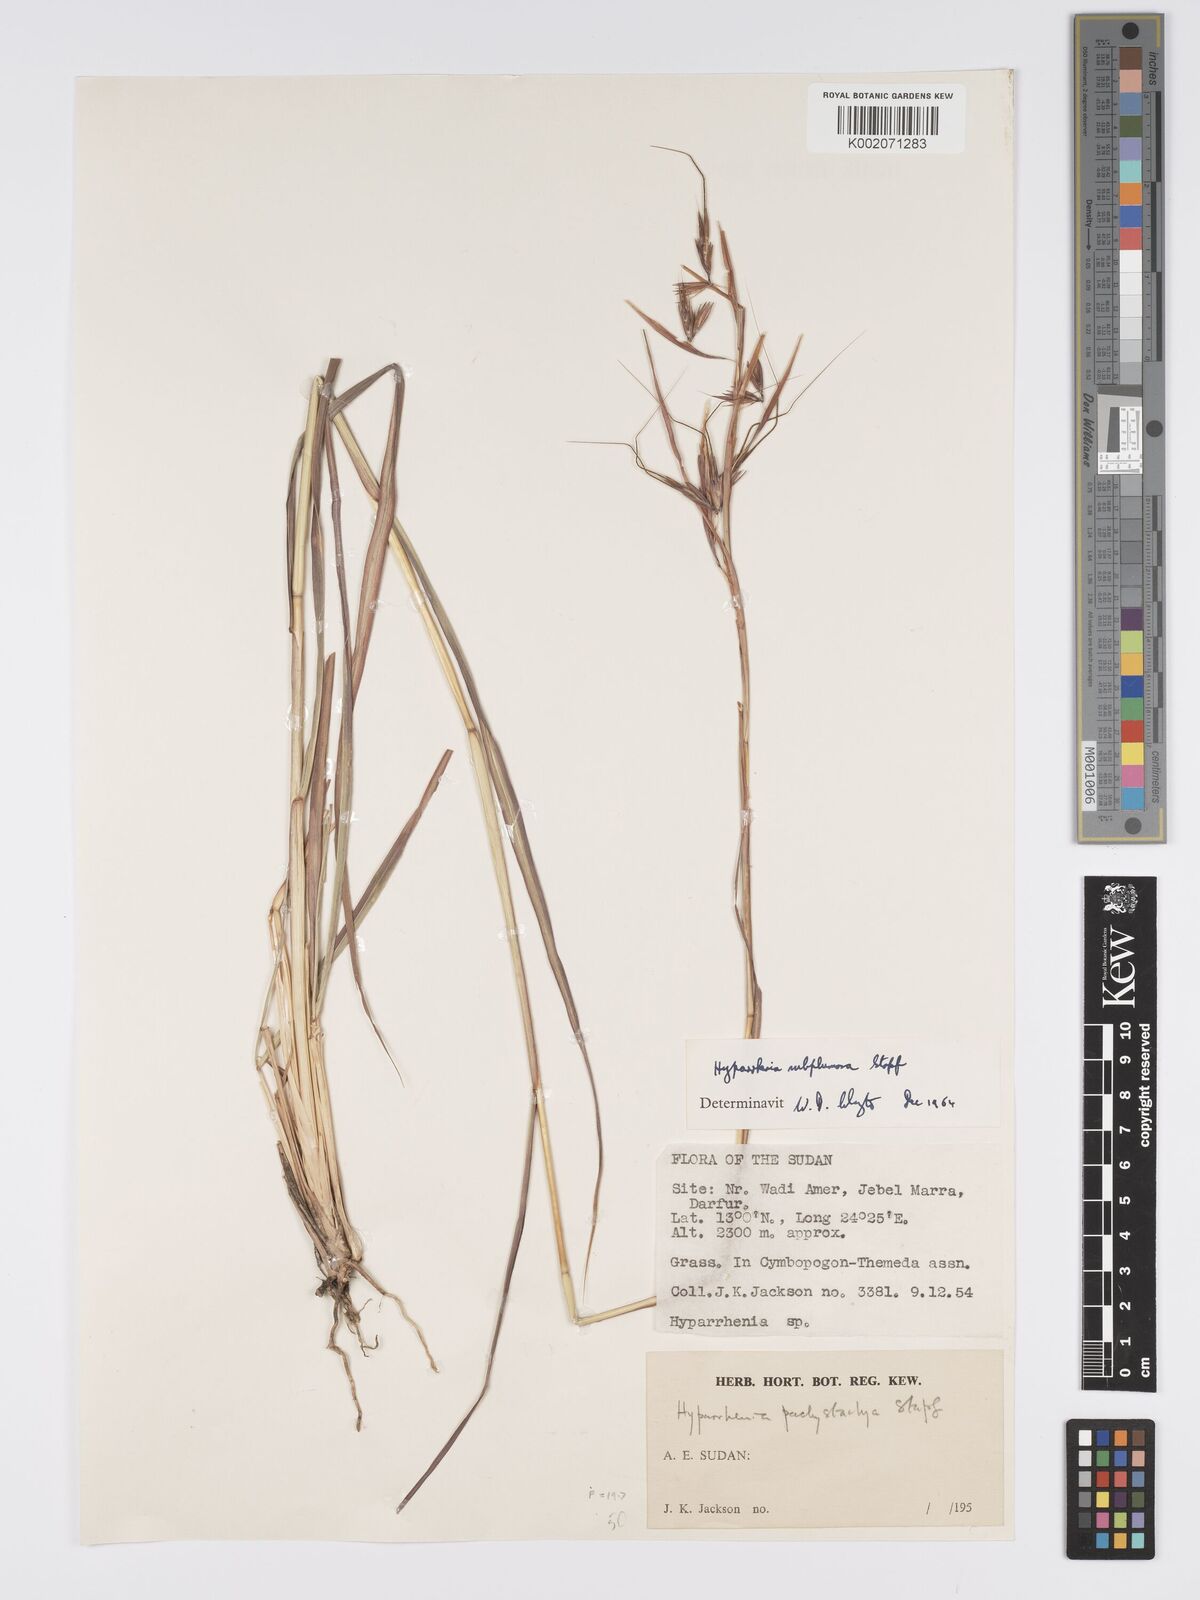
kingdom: Plantae
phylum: Tracheophyta
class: Liliopsida
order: Poales
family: Poaceae
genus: Hyparrhenia
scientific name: Hyparrhenia subplumosa
